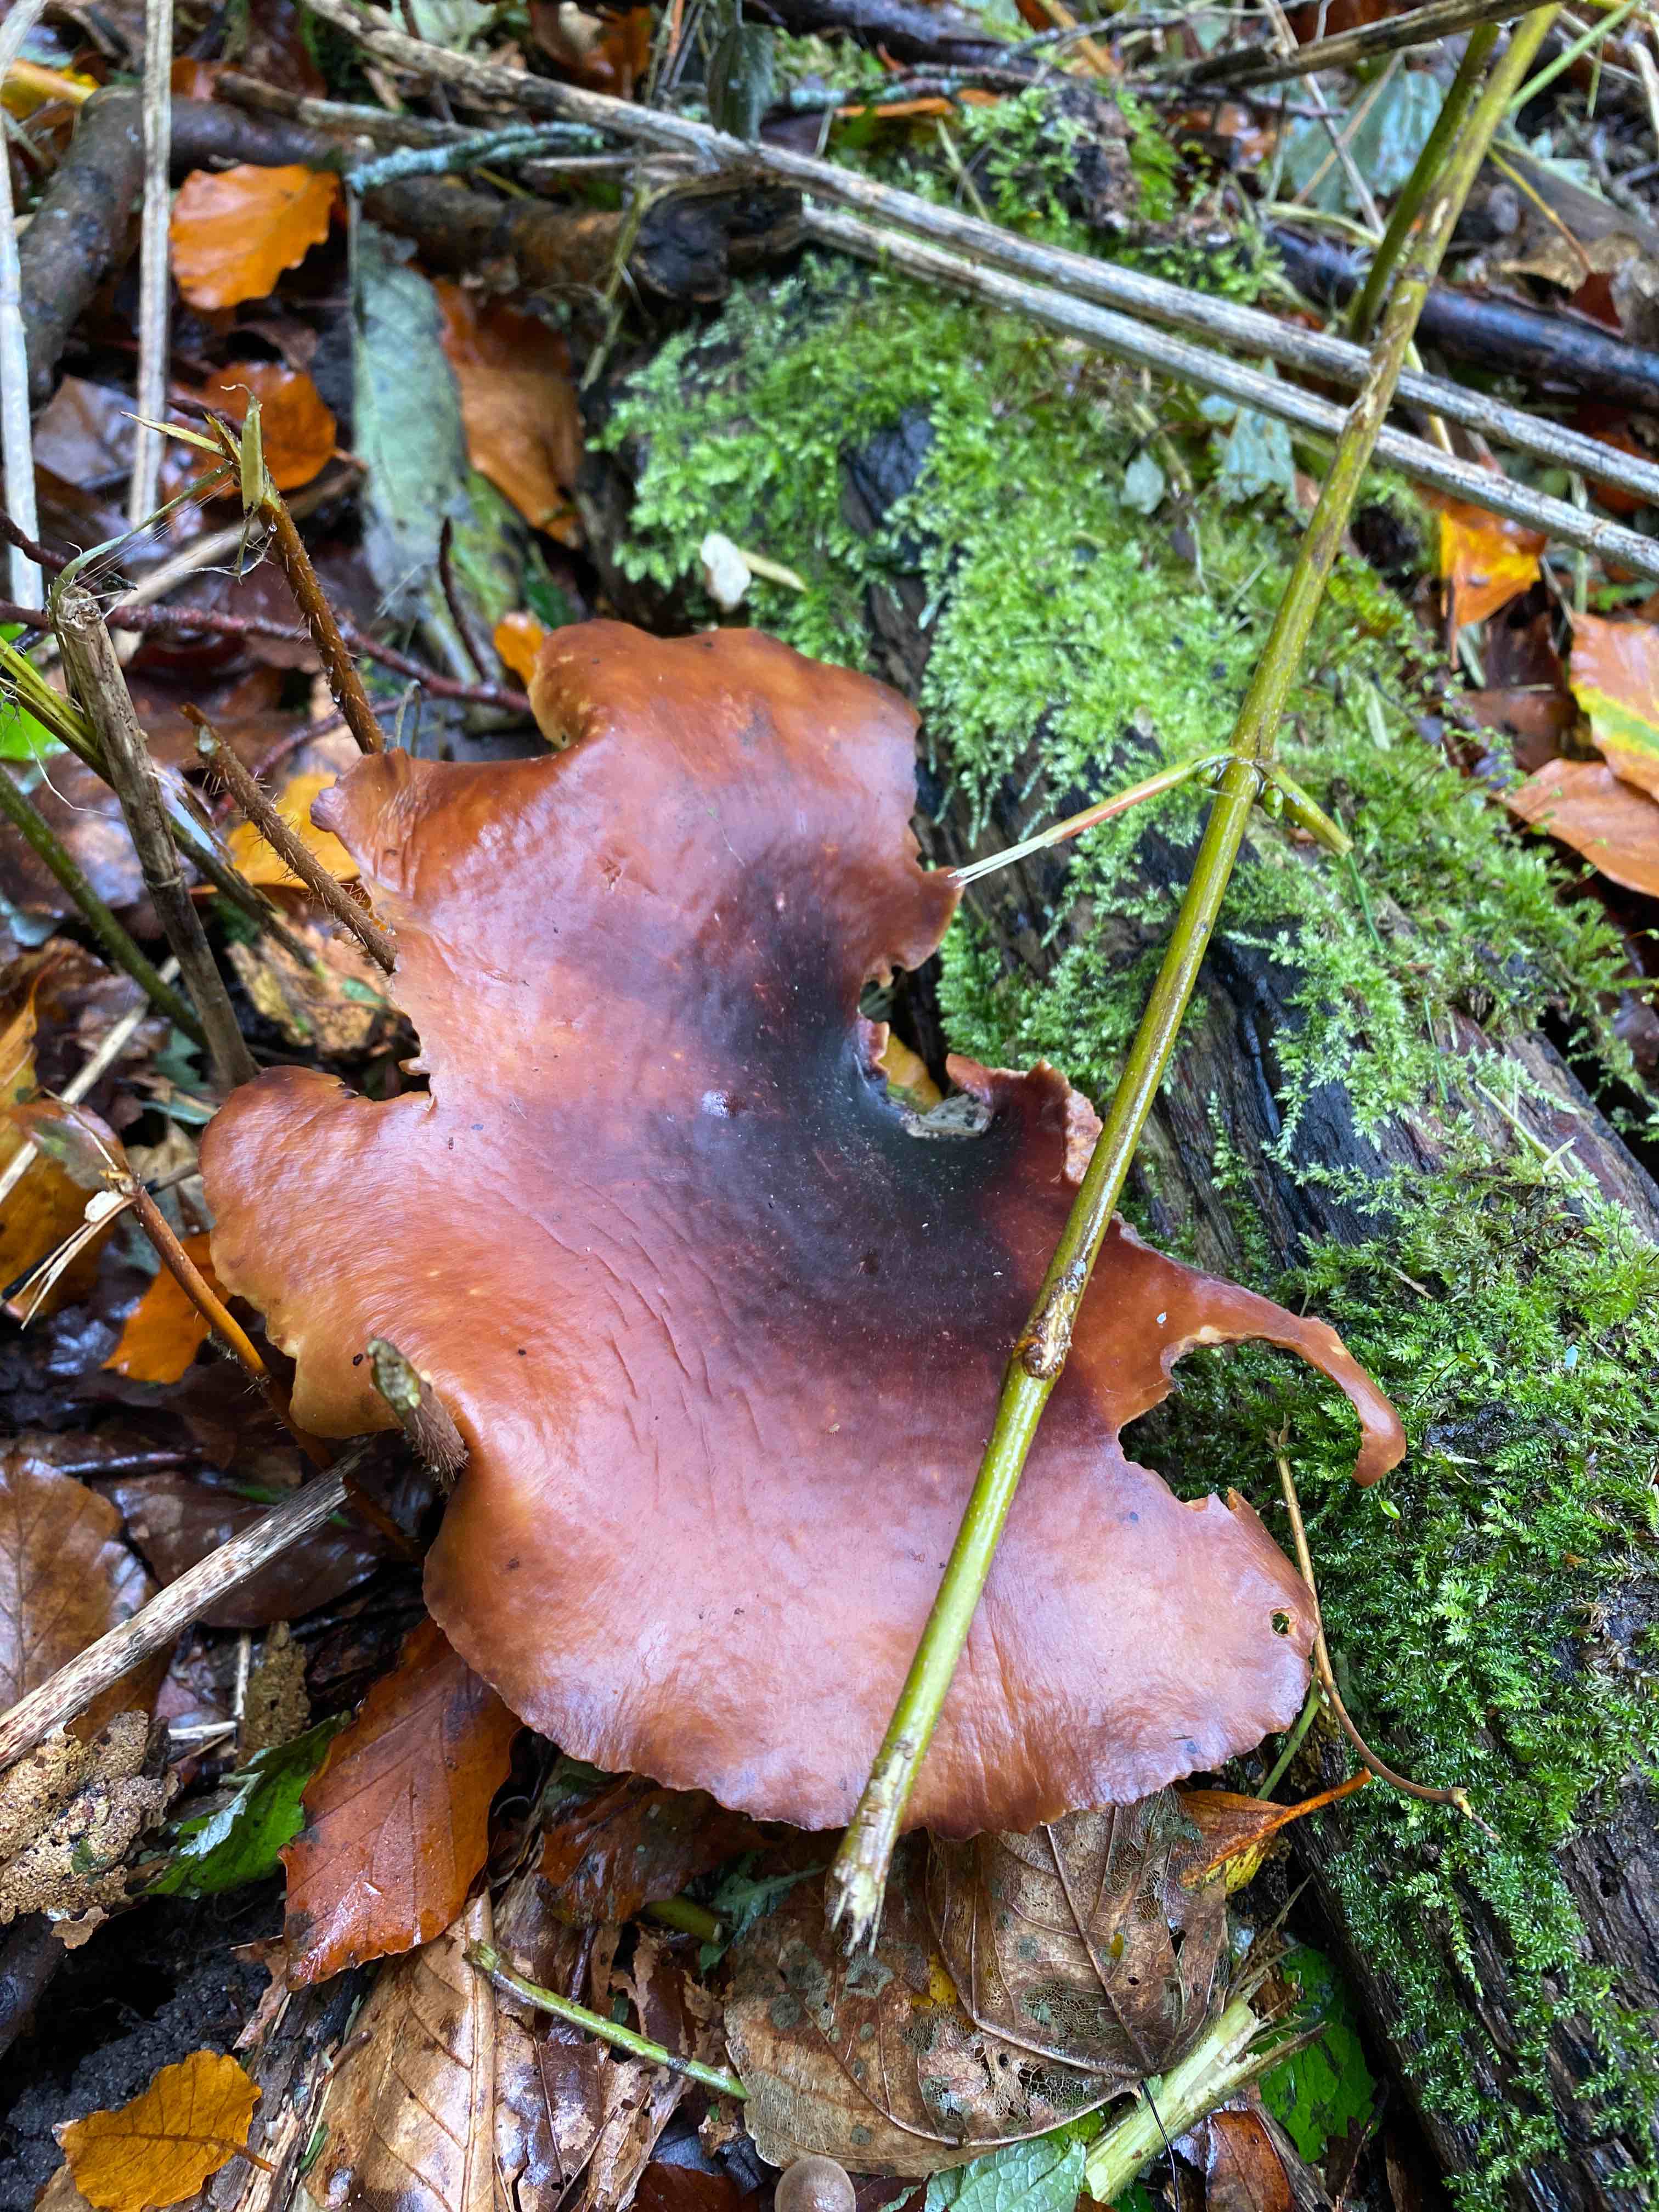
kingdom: Fungi
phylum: Basidiomycota
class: Agaricomycetes
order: Polyporales
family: Polyporaceae
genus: Picipes
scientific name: Picipes badius
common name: kastaniebrun stilkporesvamp
